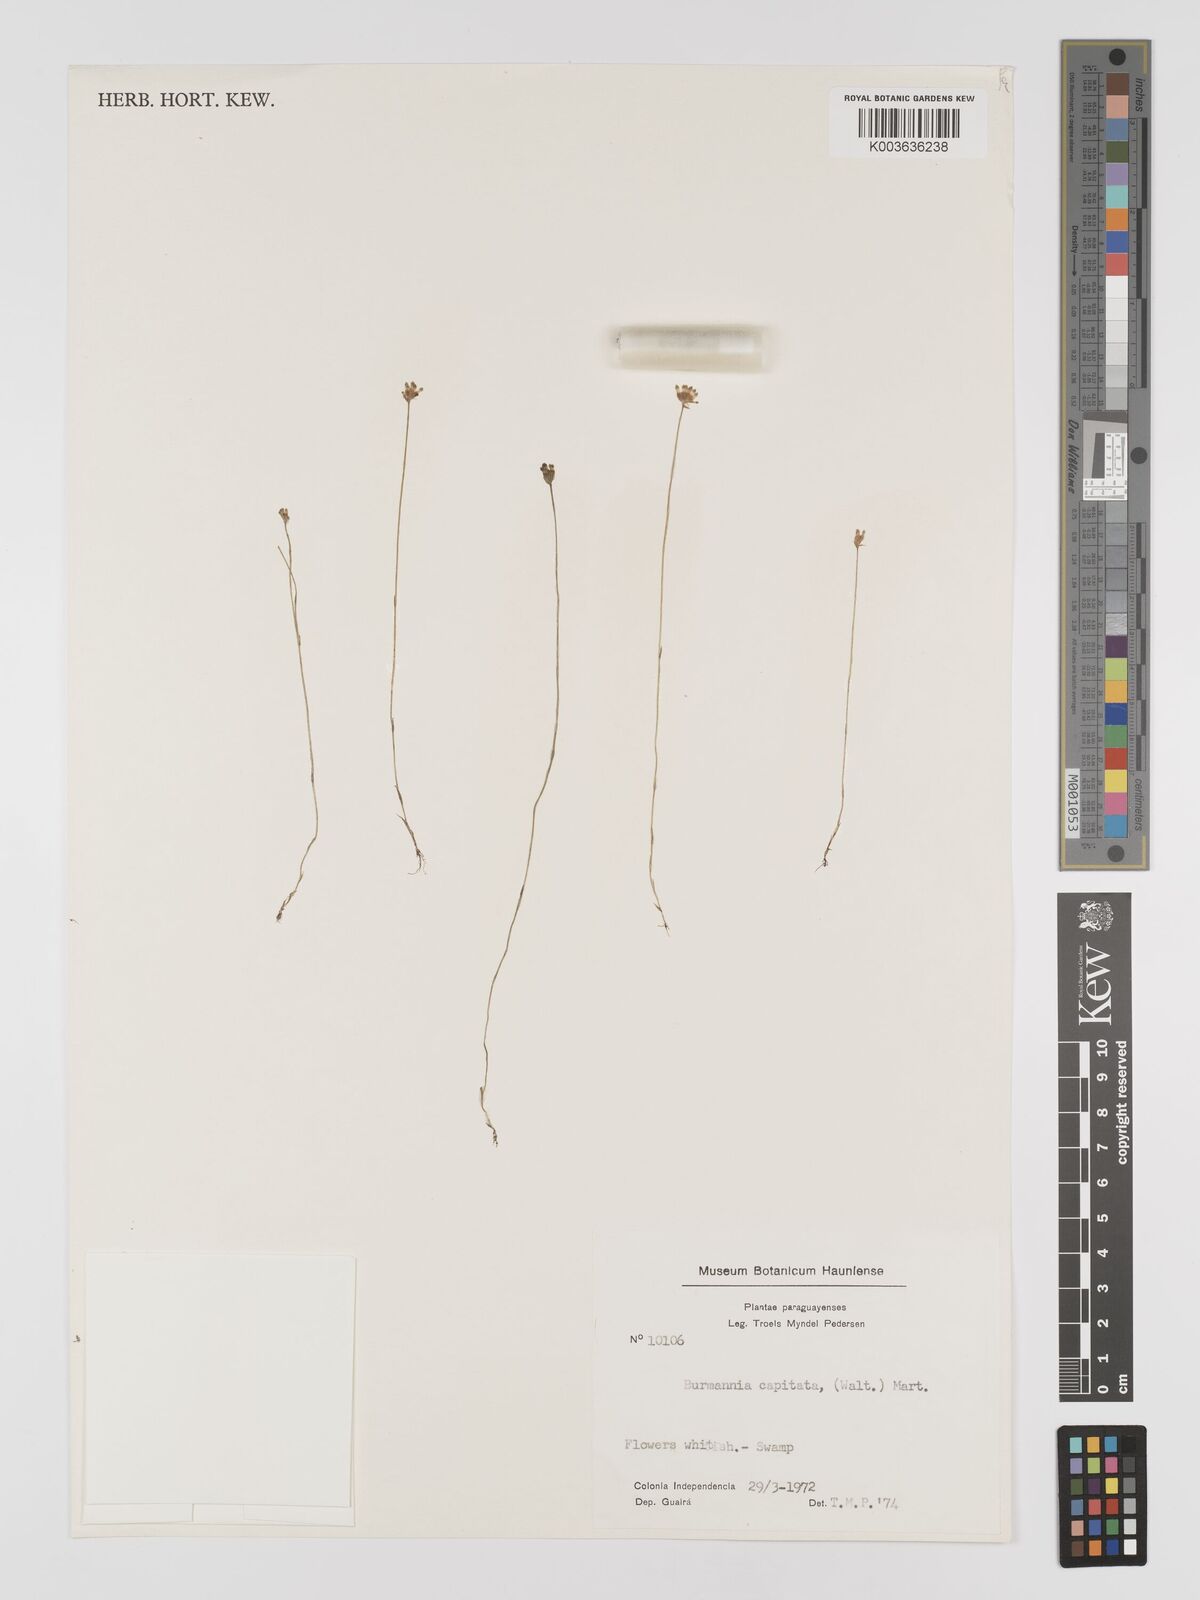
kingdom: Plantae
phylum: Tracheophyta
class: Liliopsida
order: Dioscoreales
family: Burmanniaceae
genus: Burmannia
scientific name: Burmannia capitata
